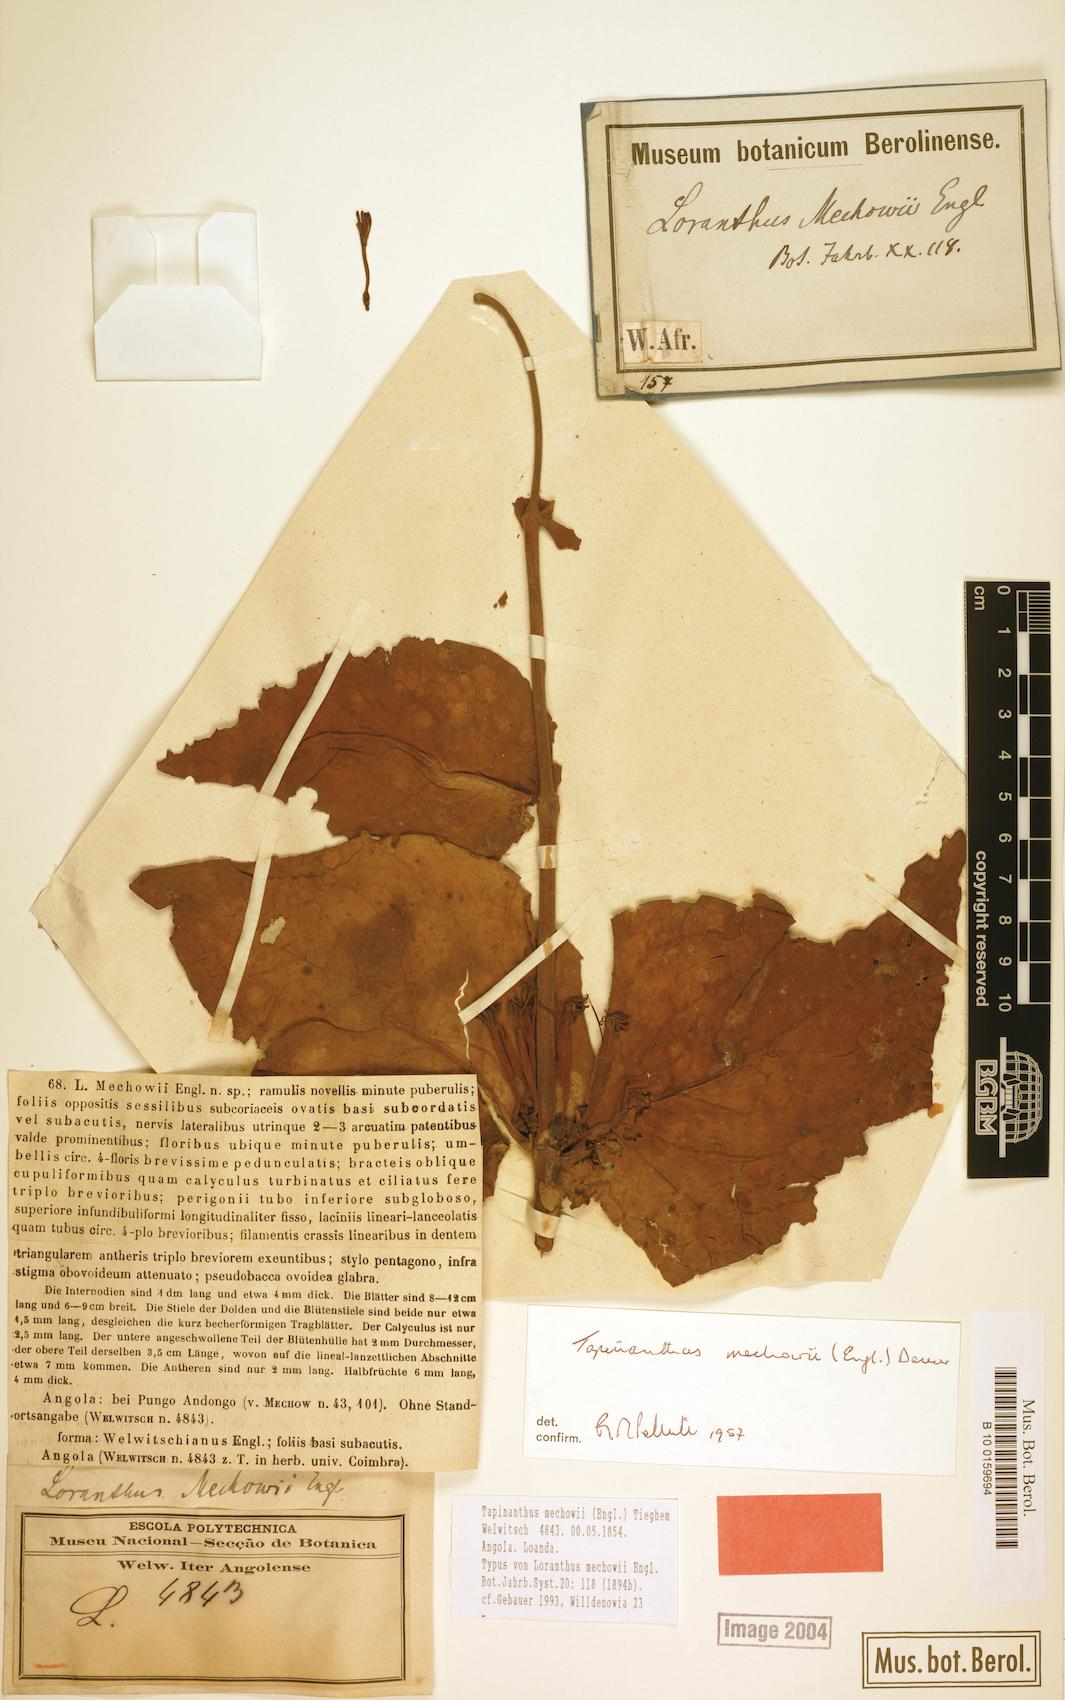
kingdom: Plantae
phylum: Tracheophyta
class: Magnoliopsida
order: Santalales
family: Loranthaceae
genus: Tapinanthus
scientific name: Tapinanthus mechowii
